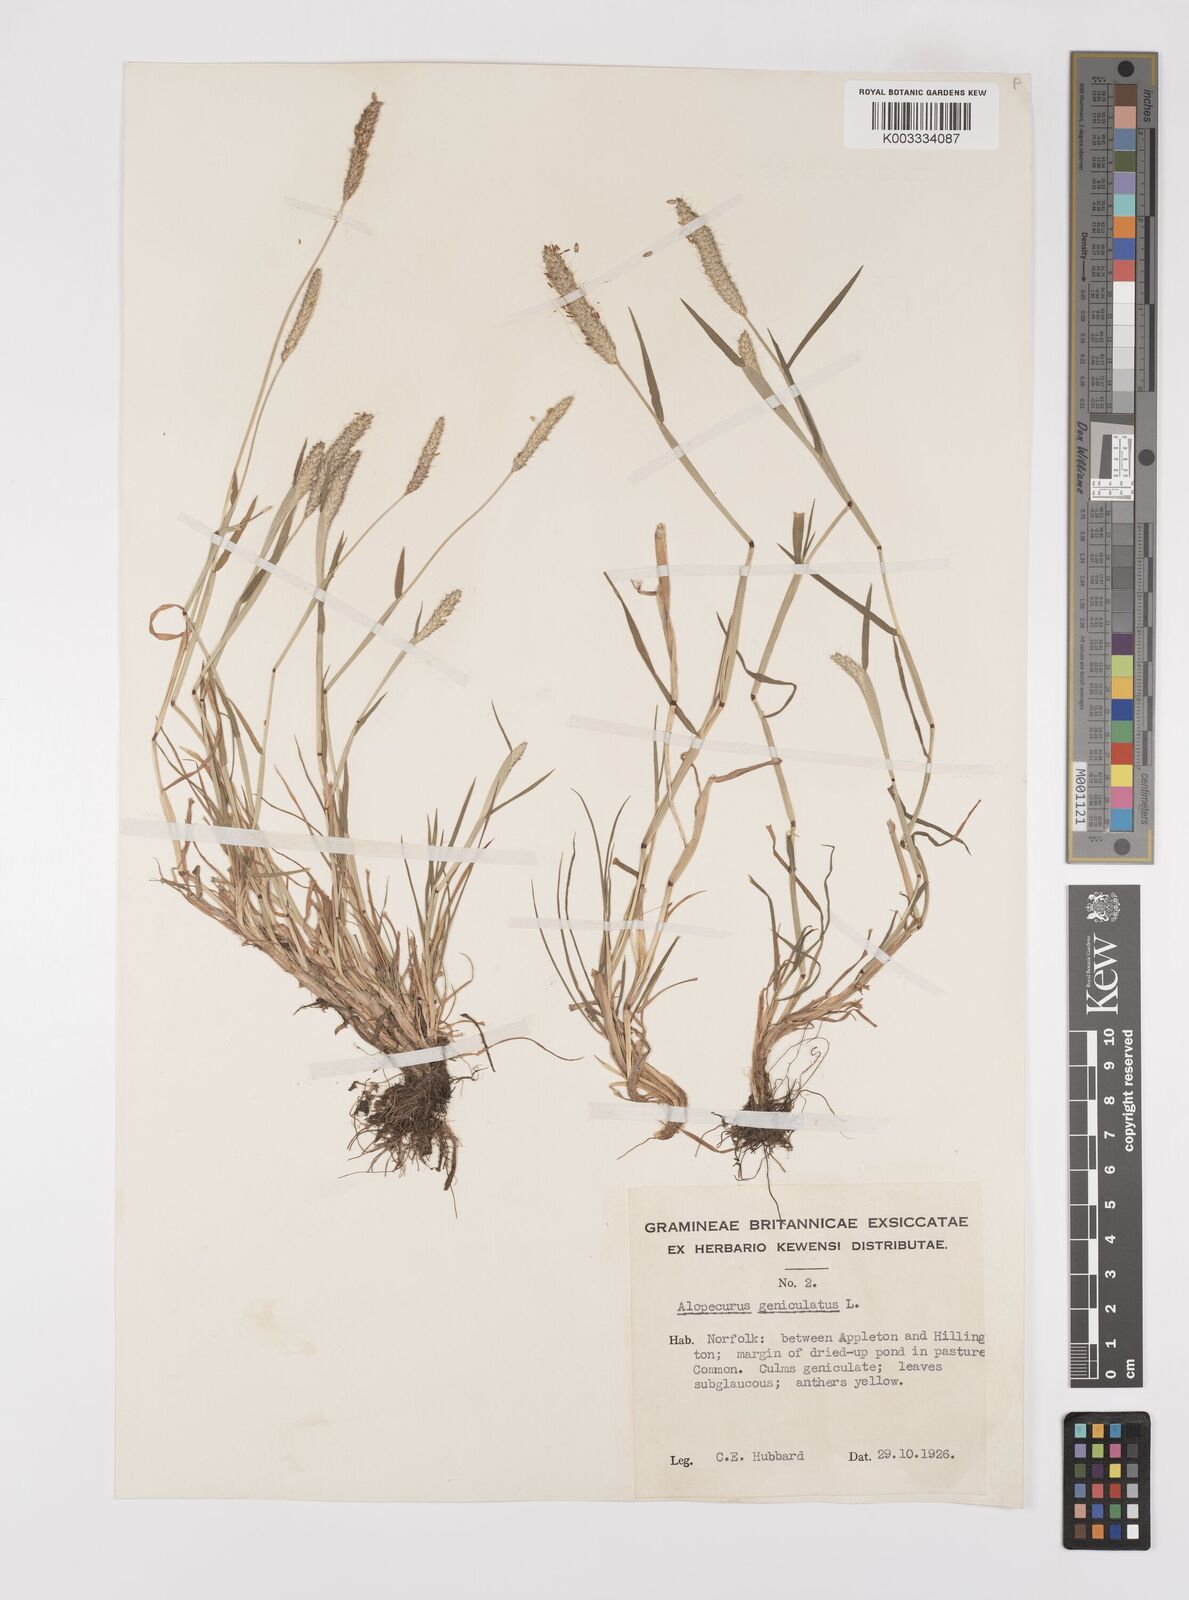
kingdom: Plantae
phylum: Tracheophyta
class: Liliopsida
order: Poales
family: Poaceae
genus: Alopecurus
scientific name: Alopecurus geniculatus
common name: Water foxtail
